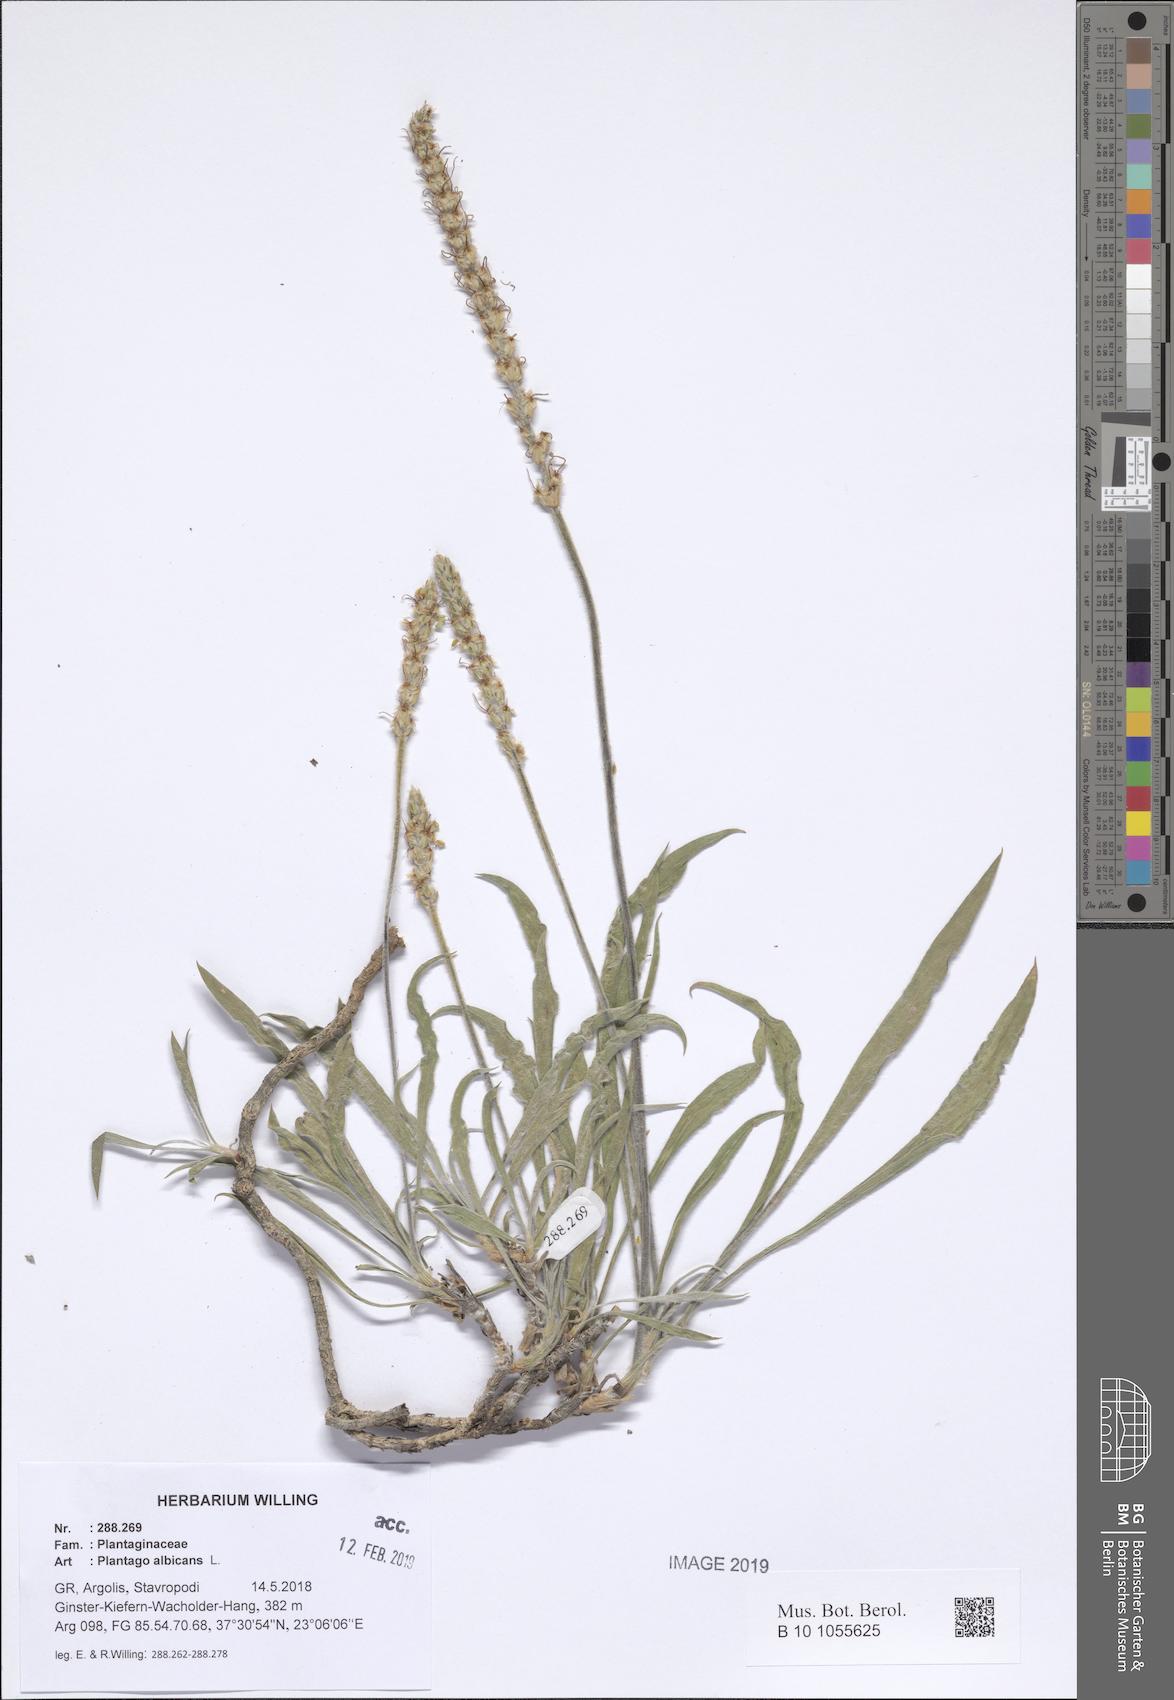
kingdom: Plantae
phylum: Tracheophyta
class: Magnoliopsida
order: Lamiales
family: Plantaginaceae
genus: Plantago
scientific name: Plantago albicans
